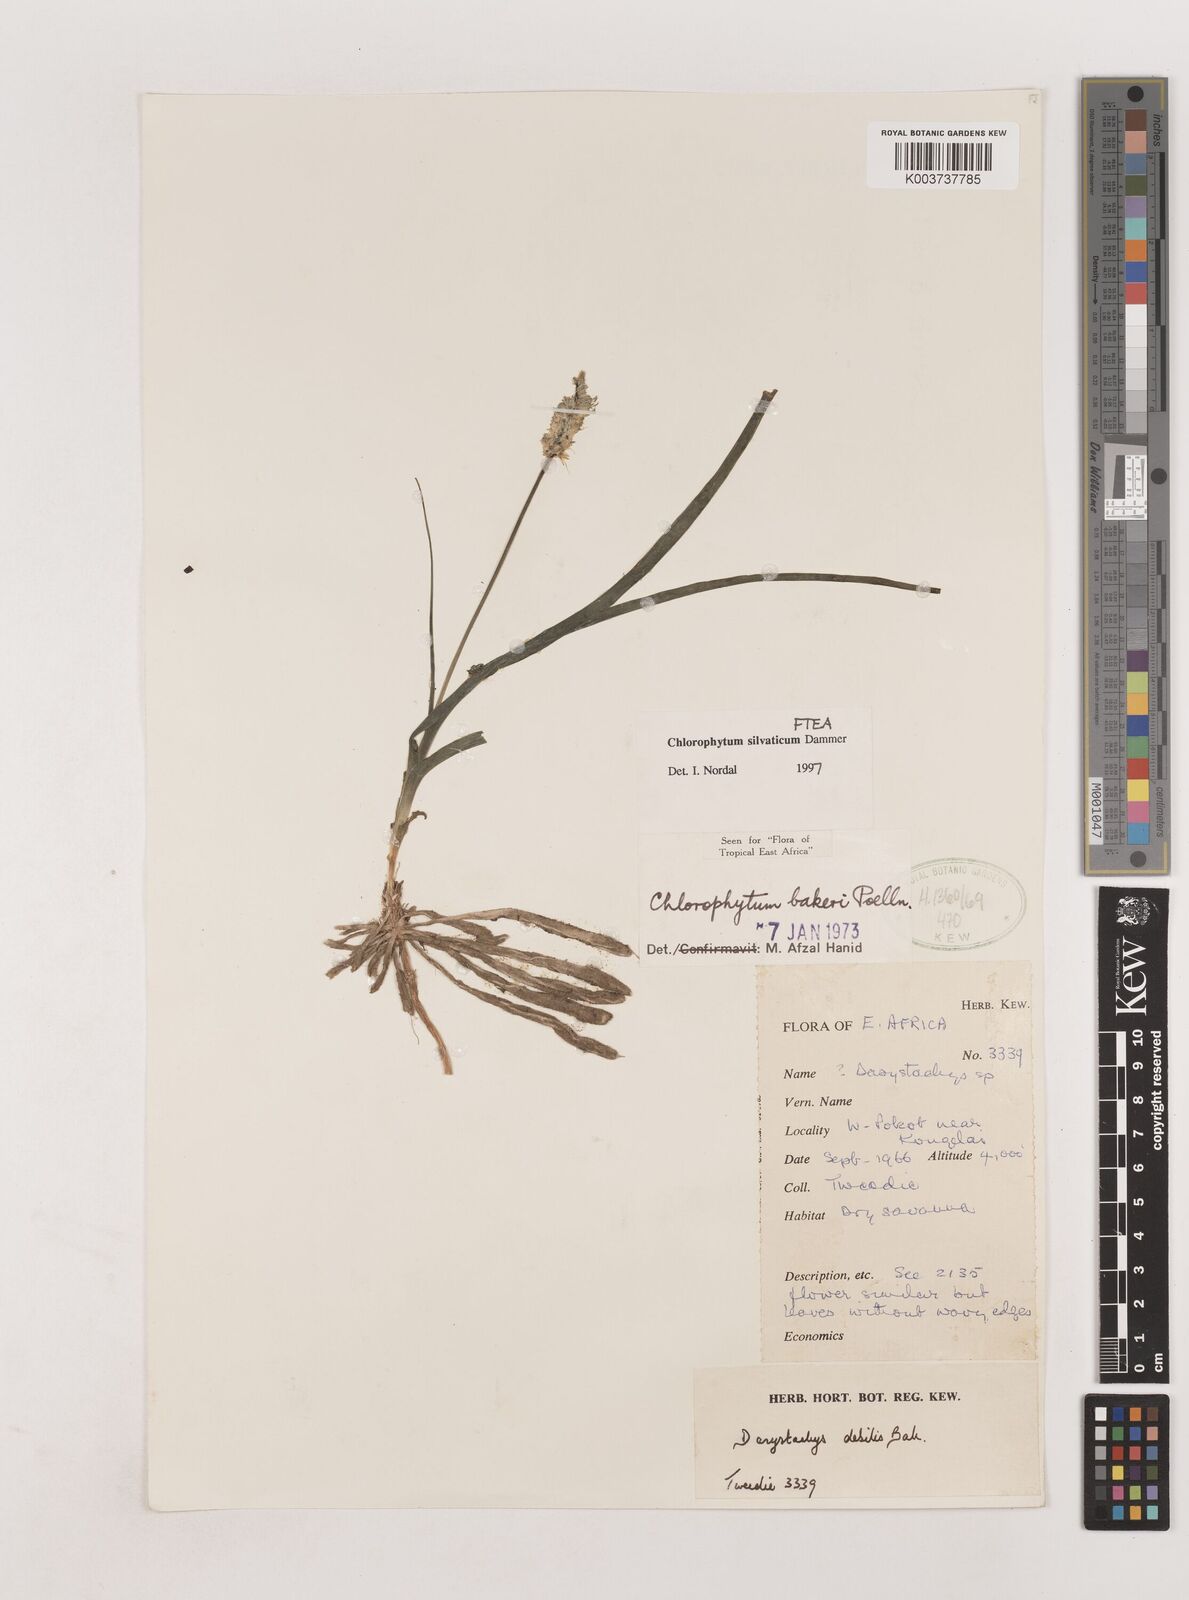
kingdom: Plantae
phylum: Tracheophyta
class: Liliopsida
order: Asparagales
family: Asparagaceae
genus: Chlorophytum
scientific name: Chlorophytum africanum
